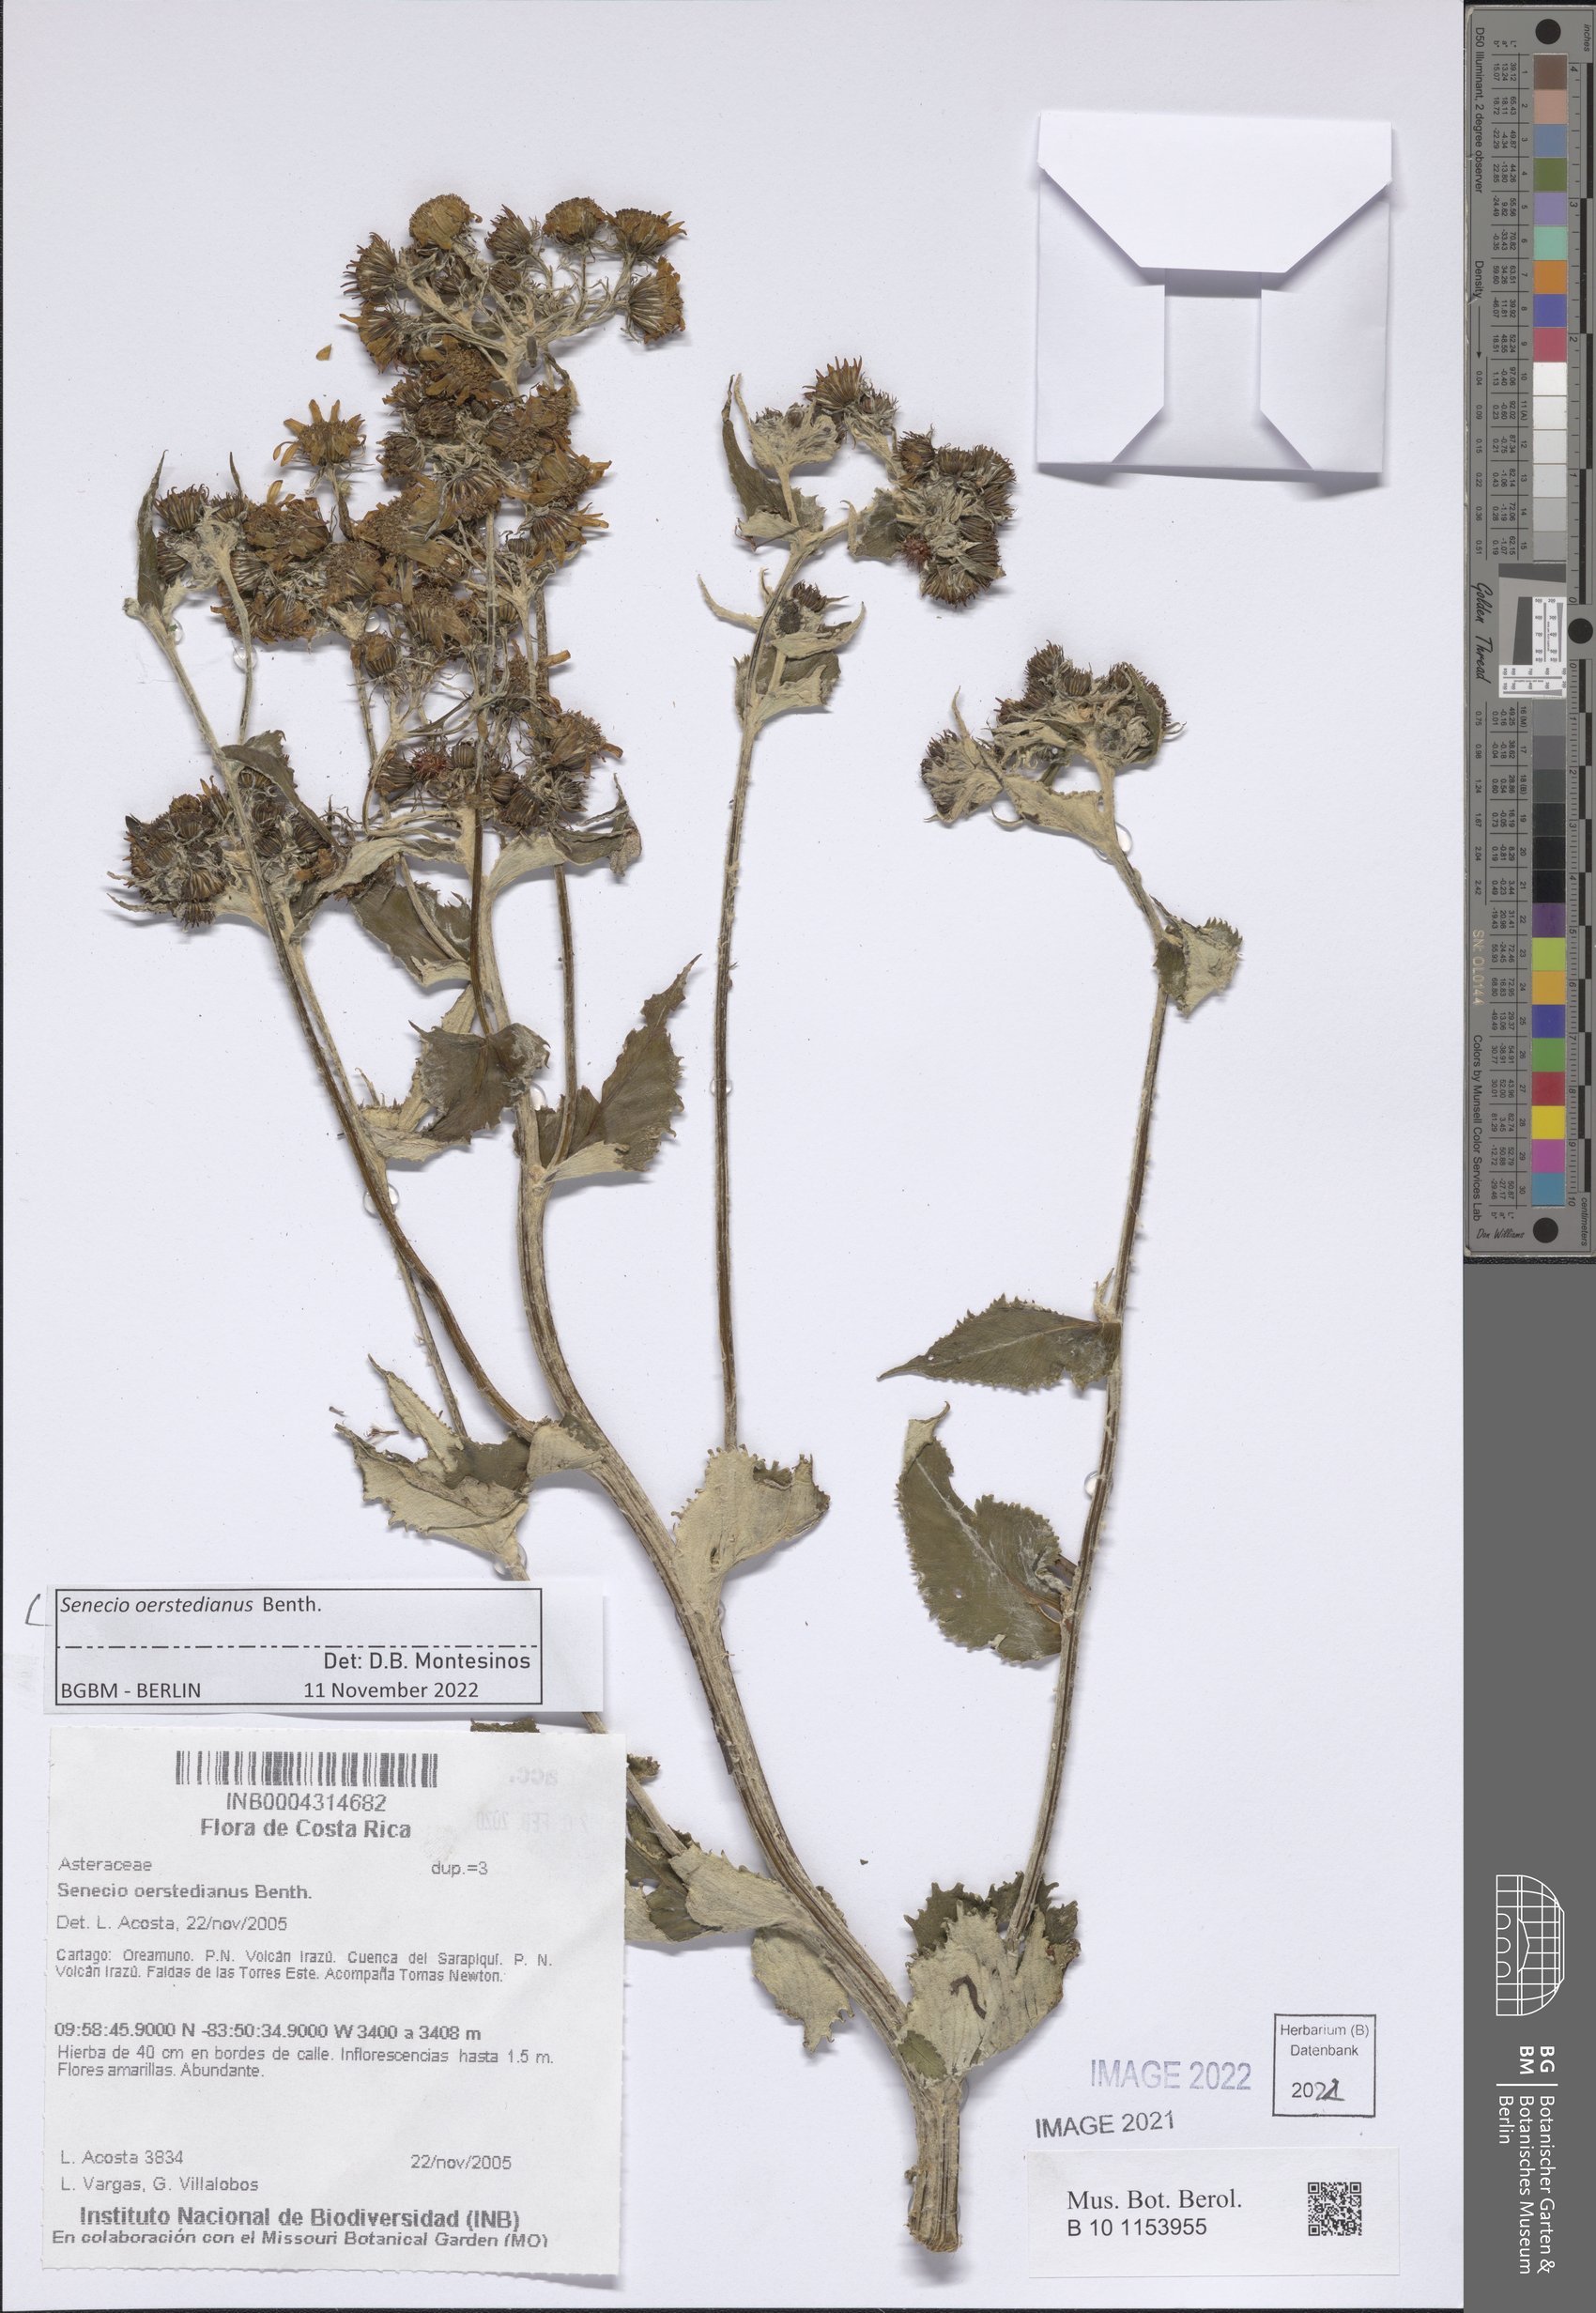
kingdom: Plantae
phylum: Tracheophyta
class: Magnoliopsida
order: Asterales
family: Asteraceae
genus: Senecio
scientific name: Senecio oerstedianus
